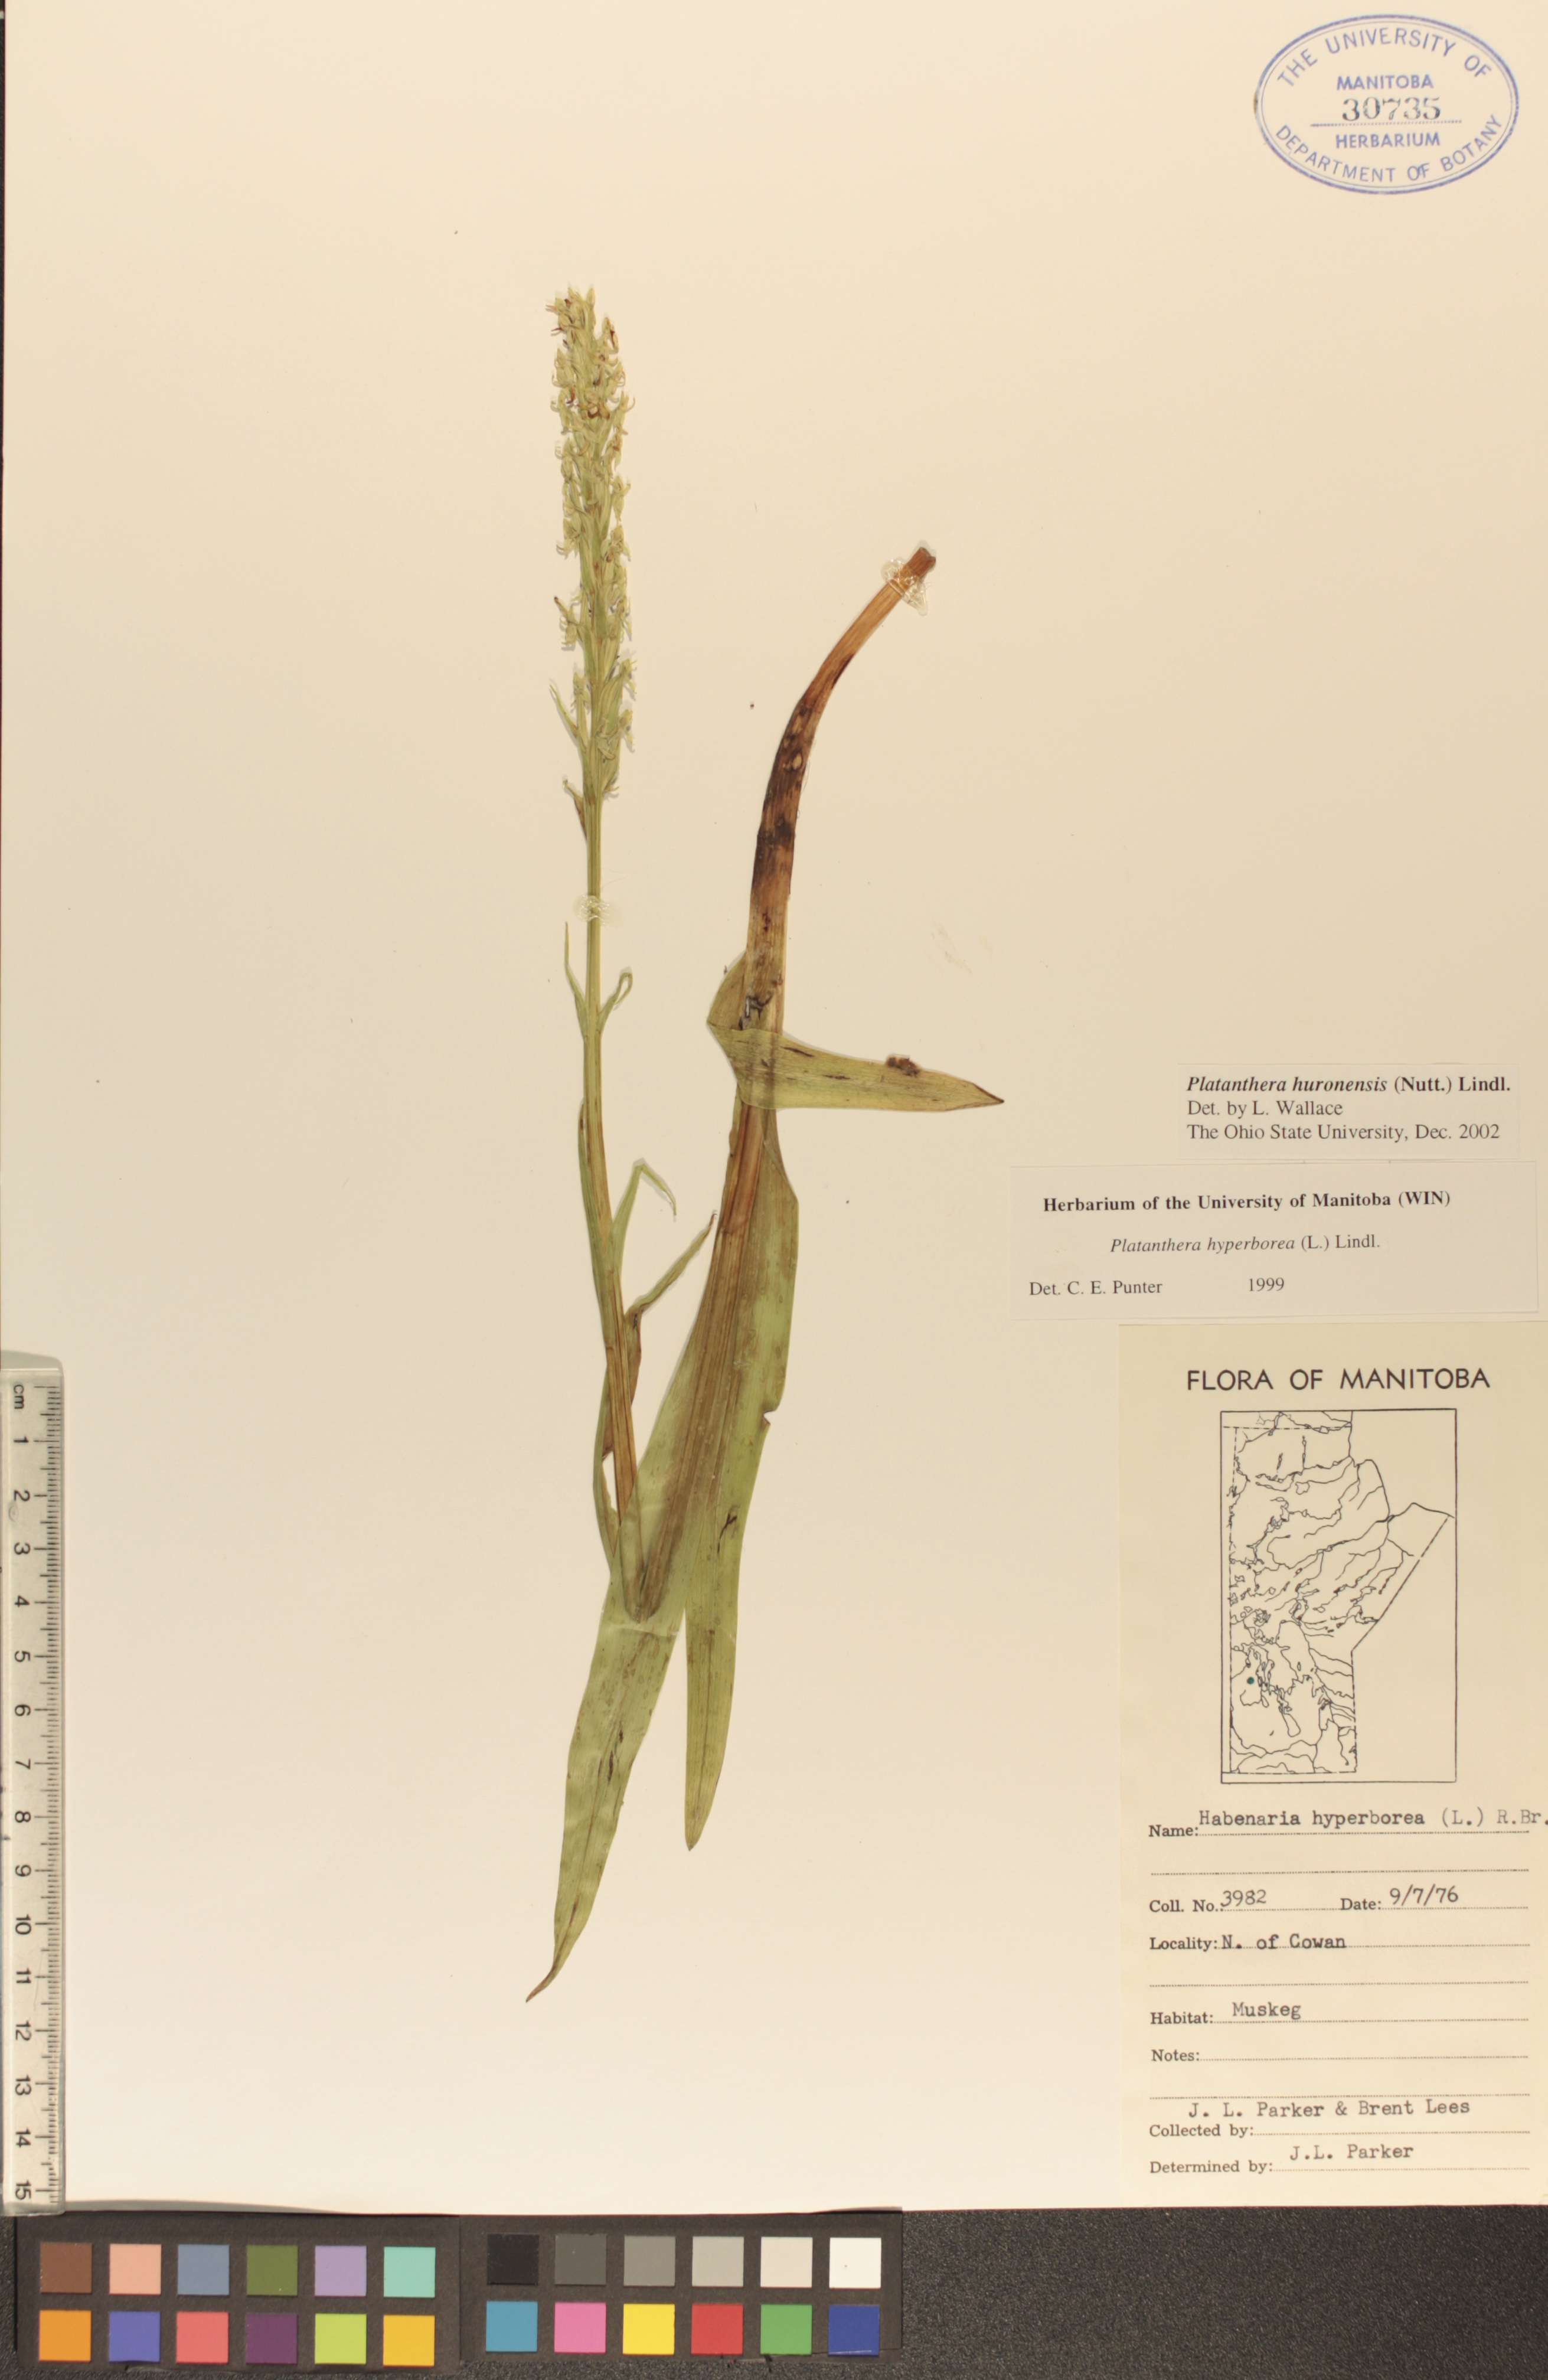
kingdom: Plantae
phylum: Tracheophyta
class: Liliopsida
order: Asparagales
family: Orchidaceae
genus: Platanthera
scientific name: Platanthera huronensis
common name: Fragrant green orchid
